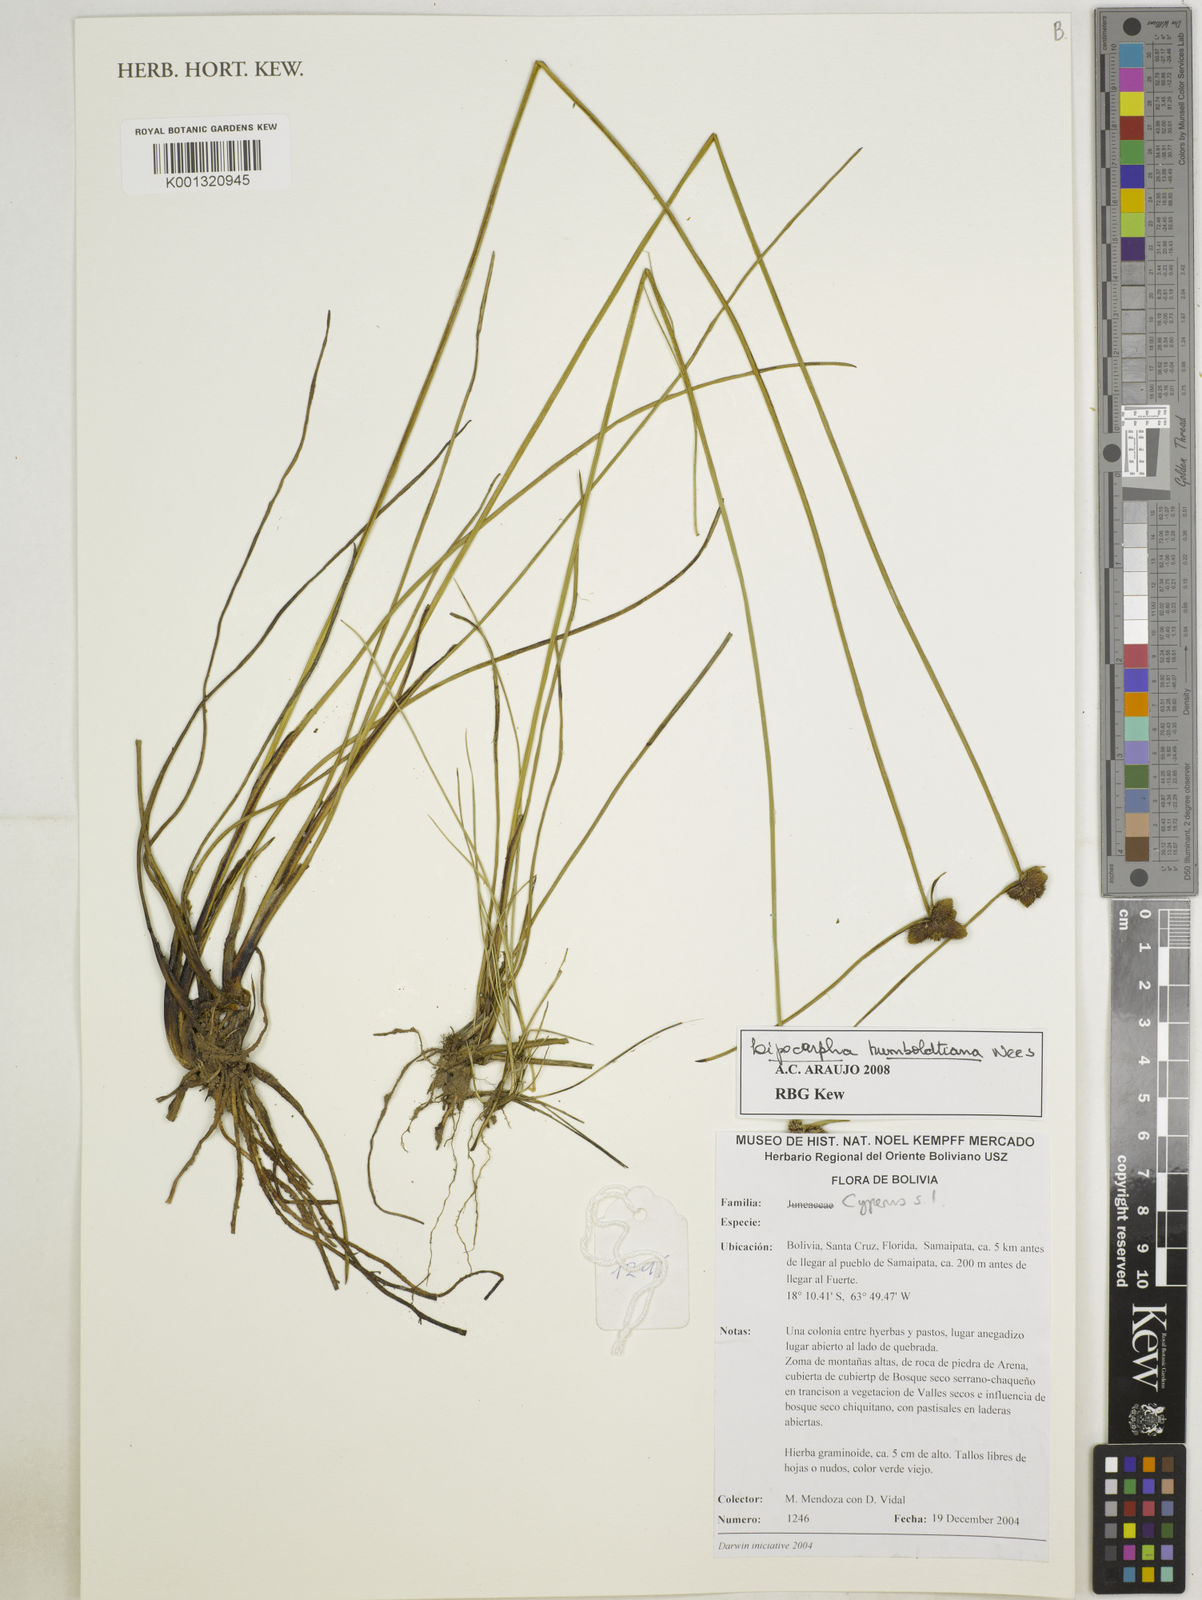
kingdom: Plantae
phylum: Tracheophyta
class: Liliopsida
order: Poales
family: Cyperaceae
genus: Cyperus
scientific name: Cyperus lanceolatus
